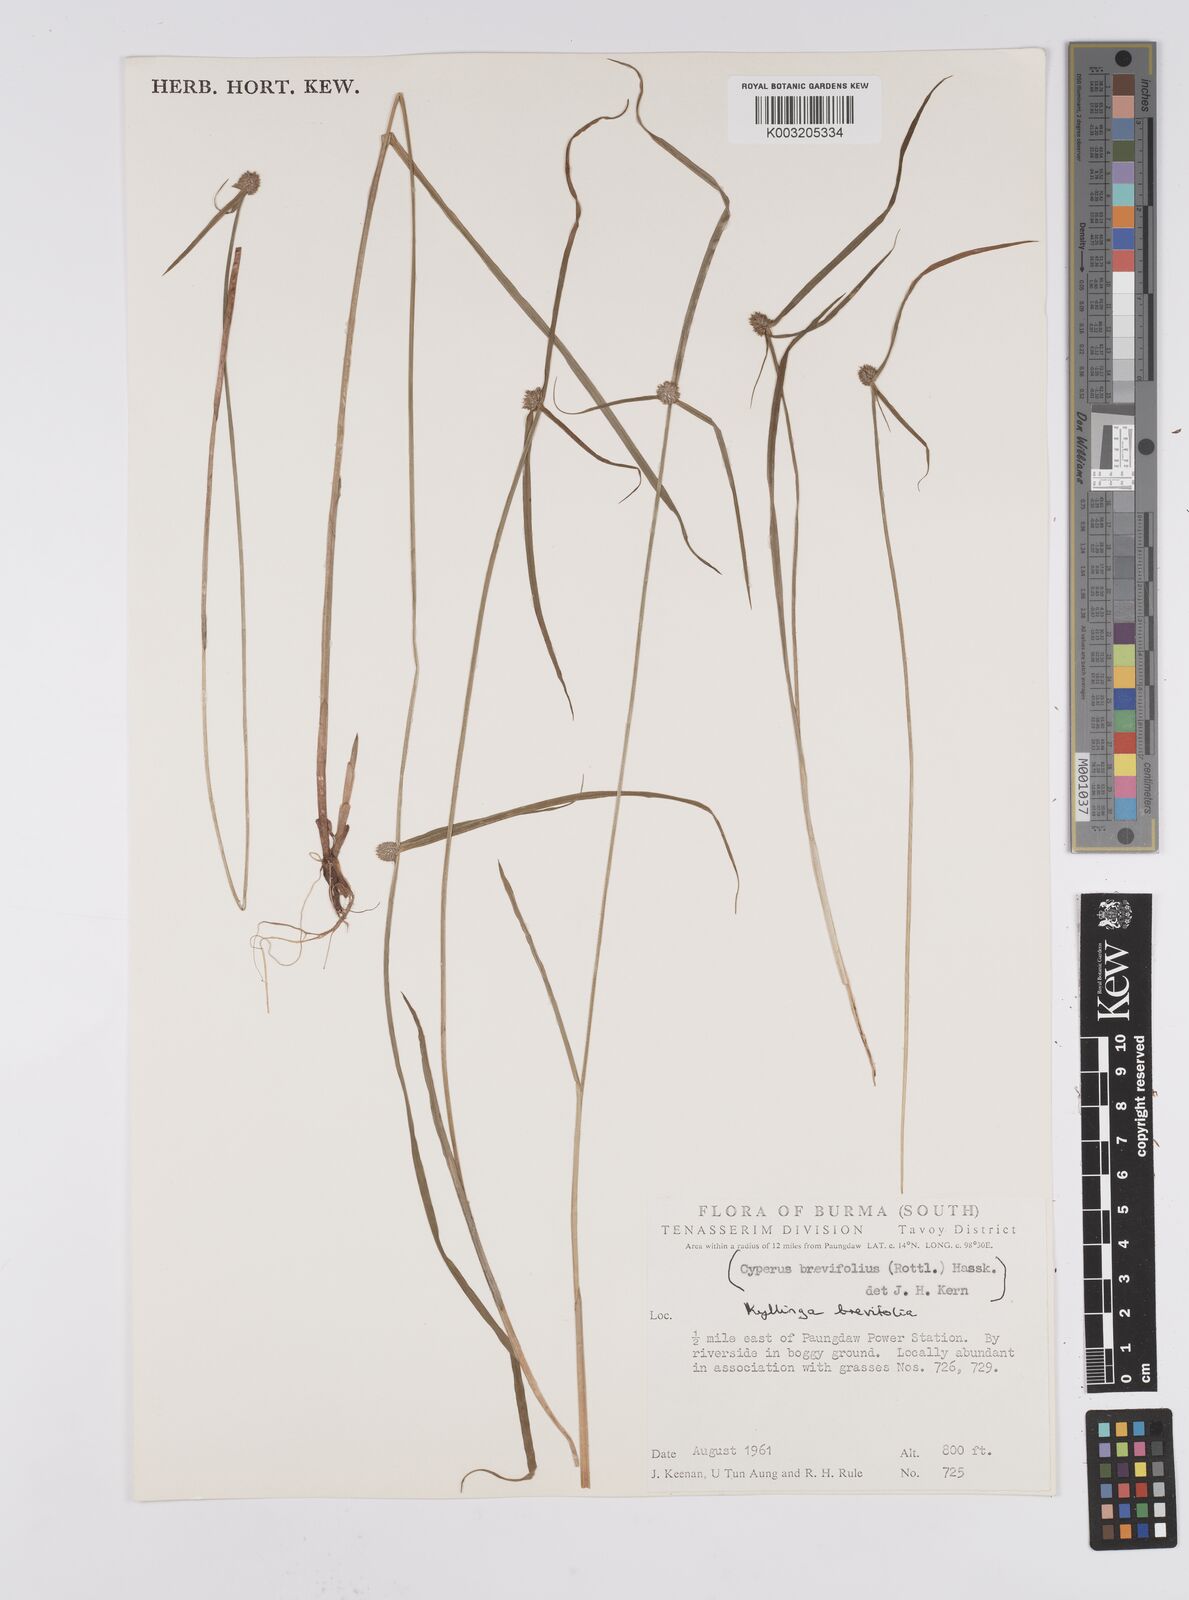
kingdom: Plantae
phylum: Tracheophyta
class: Liliopsida
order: Poales
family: Cyperaceae
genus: Cyperus
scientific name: Cyperus brevifolius
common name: Globe kyllinga
